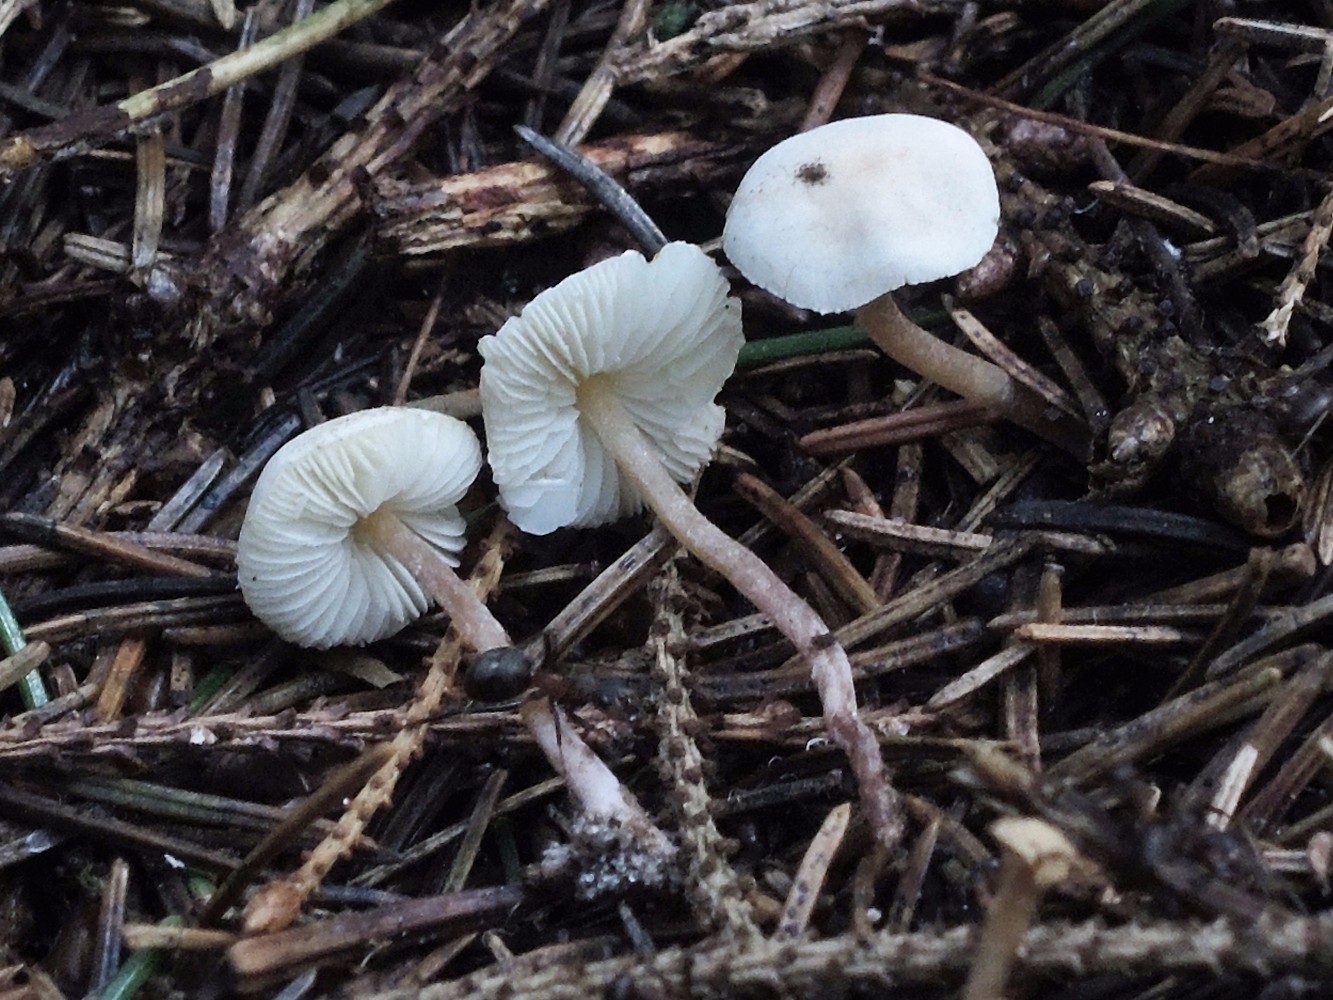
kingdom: Fungi
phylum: Basidiomycota
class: Agaricomycetes
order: Agaricales
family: Agaricaceae
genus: Cystolepiota
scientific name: Cystolepiota seminuda
